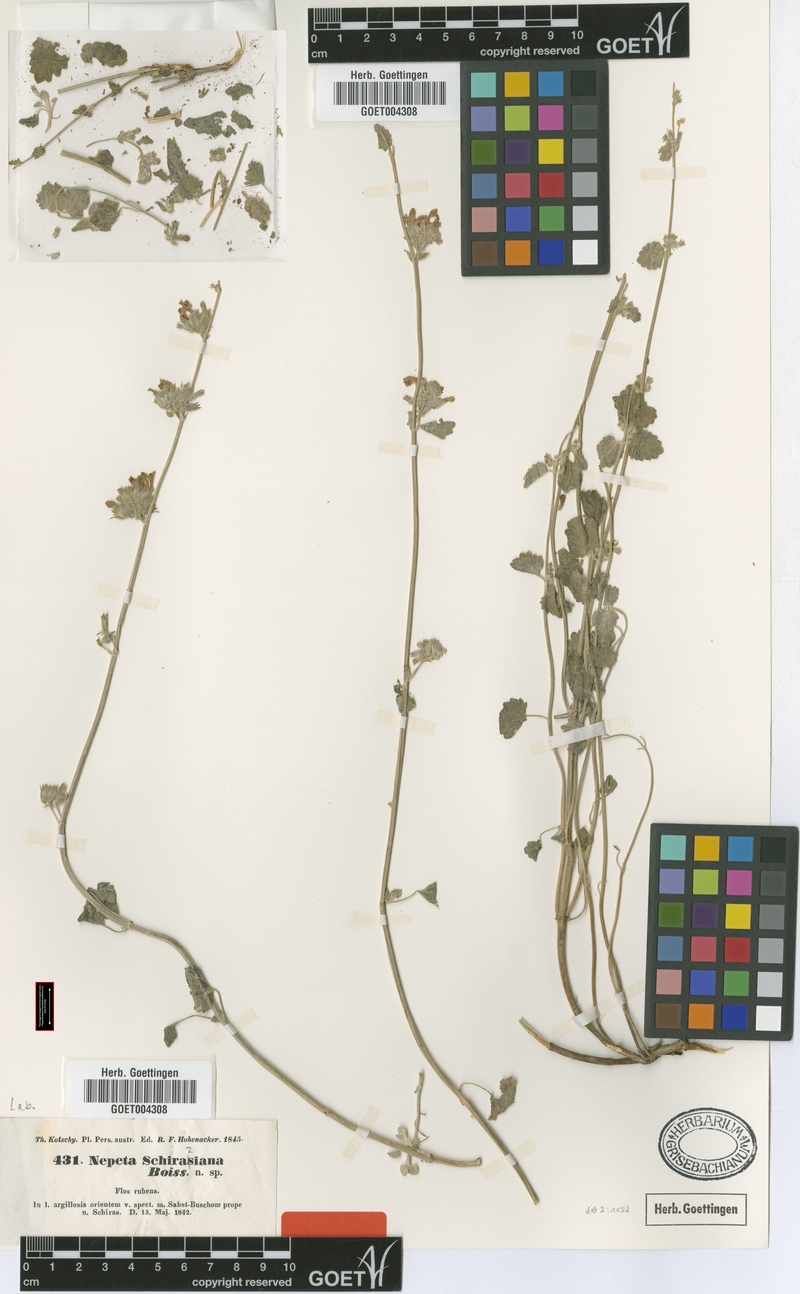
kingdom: Plantae
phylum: Tracheophyta
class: Magnoliopsida
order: Lamiales
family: Lamiaceae
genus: Nepeta
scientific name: Nepeta schiraziana
